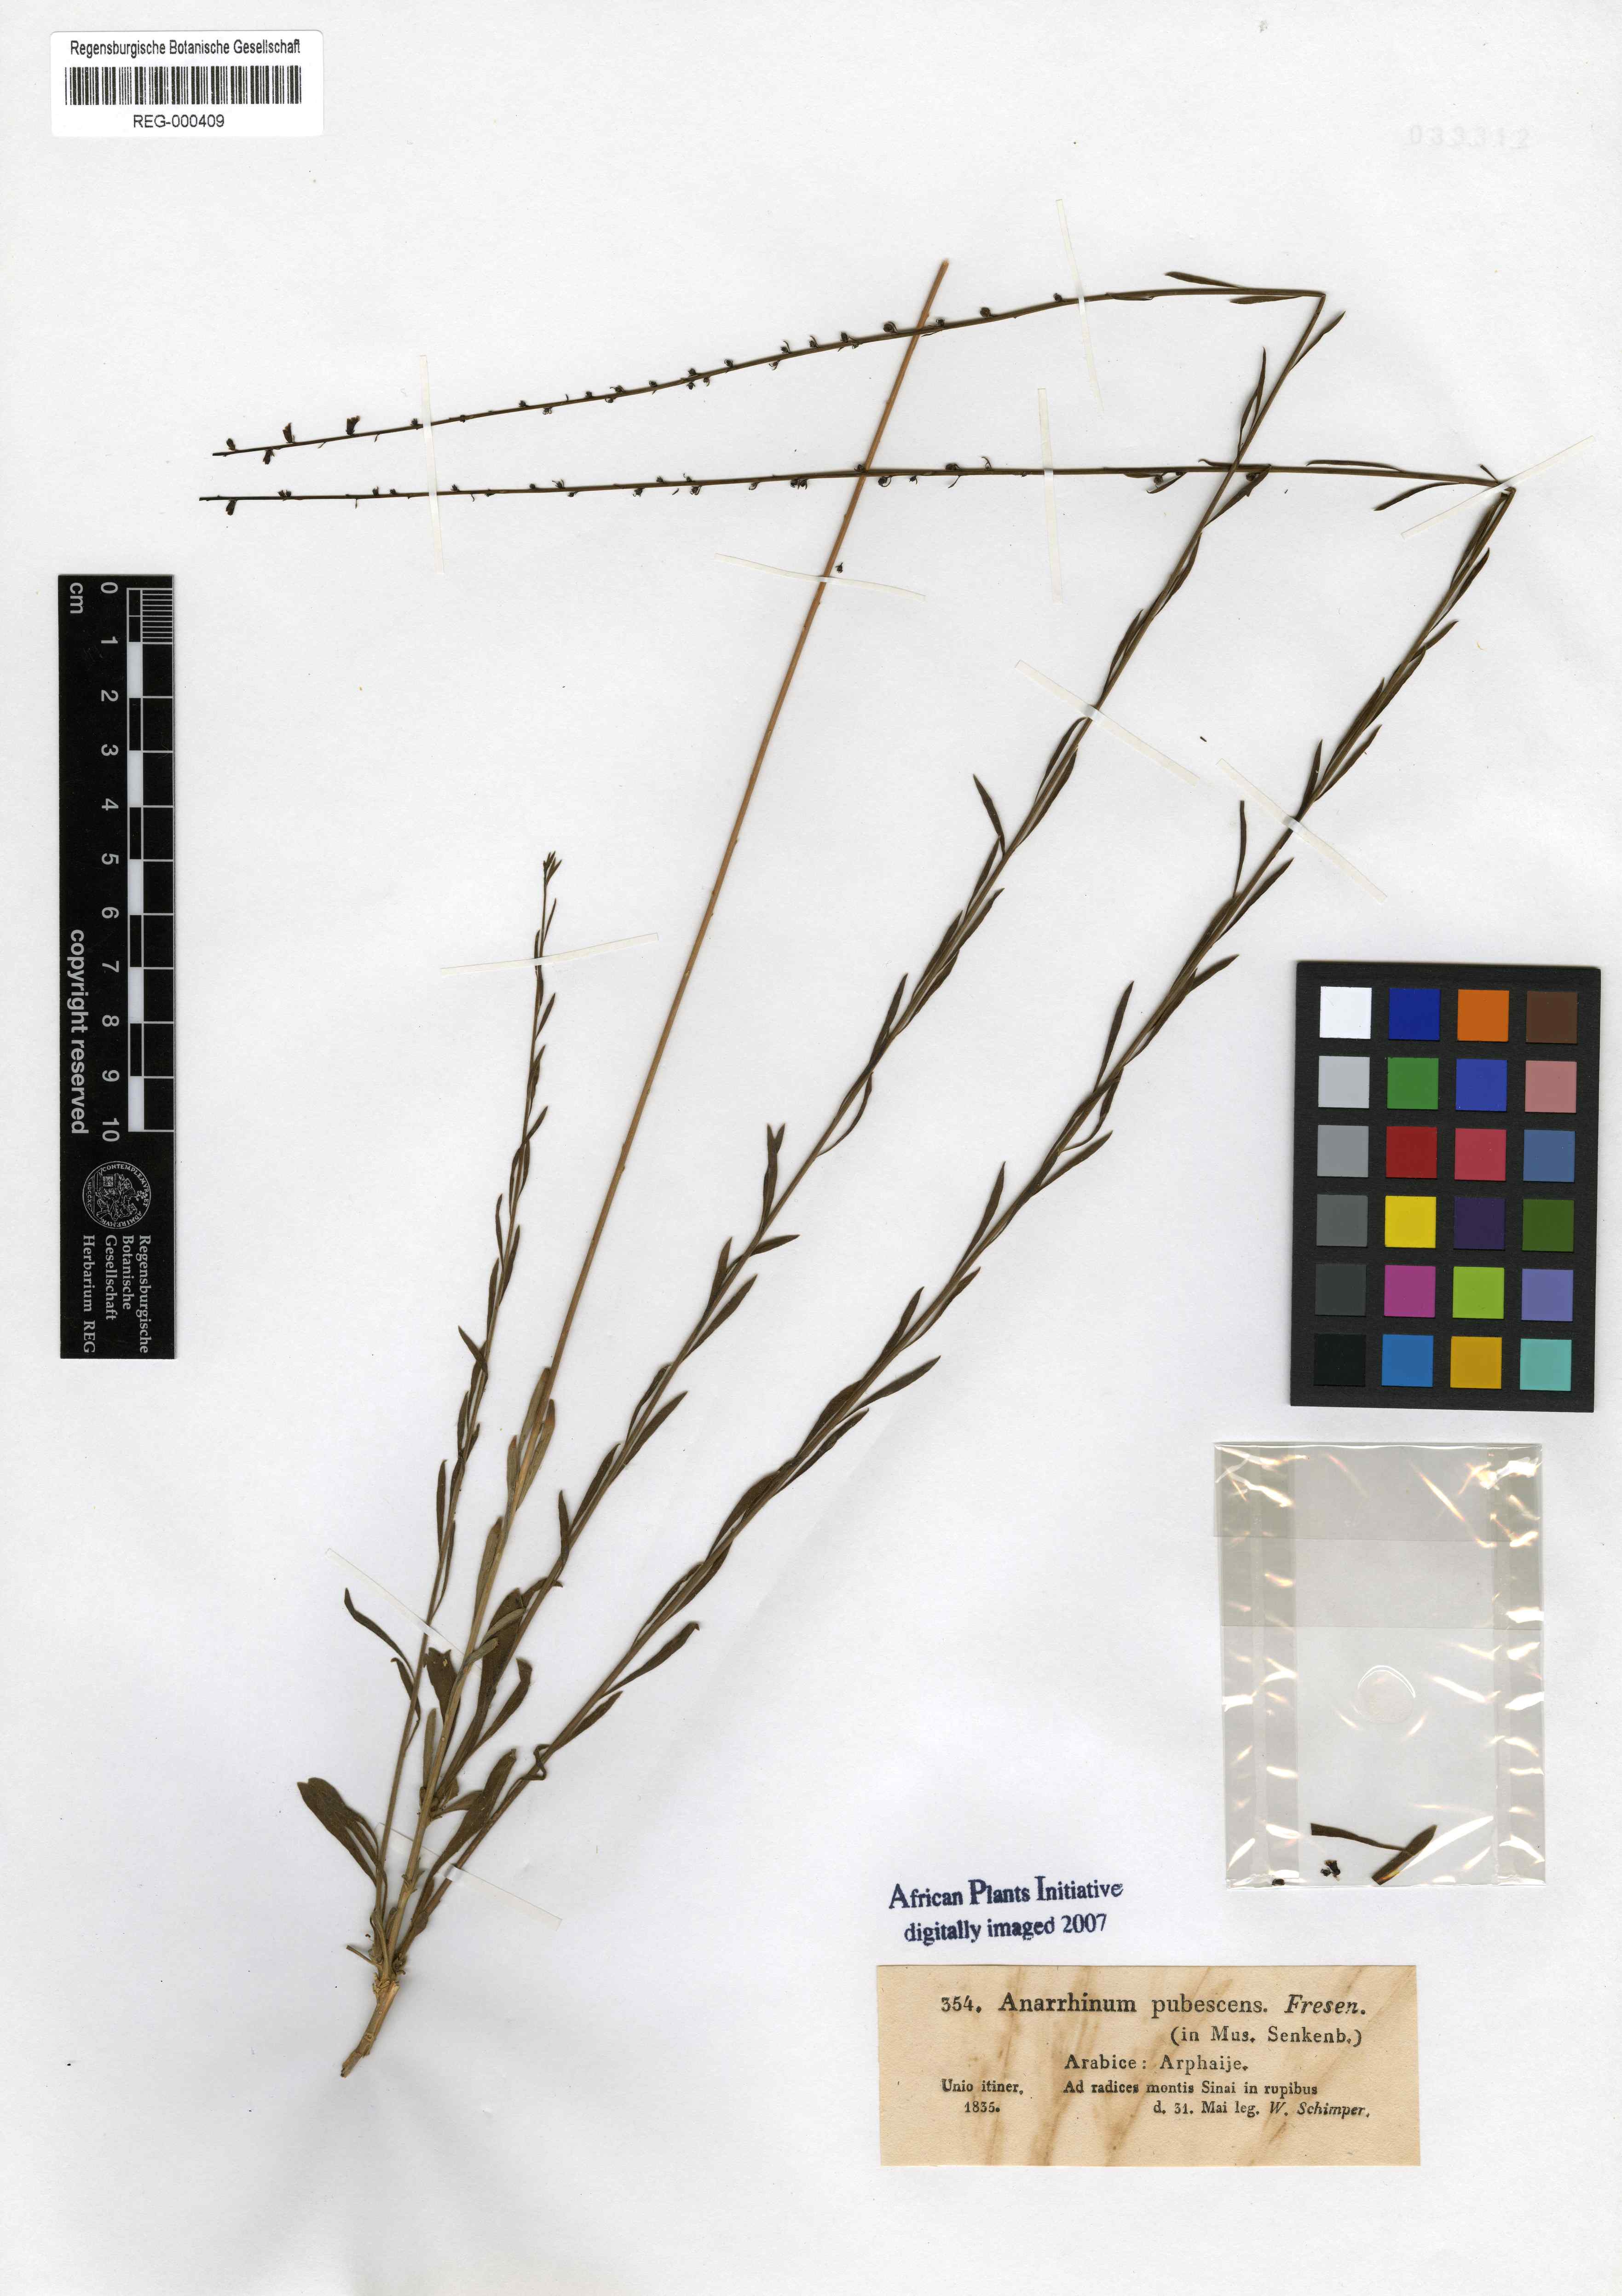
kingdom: Plantae
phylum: Tracheophyta
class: Magnoliopsida
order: Lamiales
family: Plantaginaceae
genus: Anarrhinum
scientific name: Anarrhinum forskaohlii
